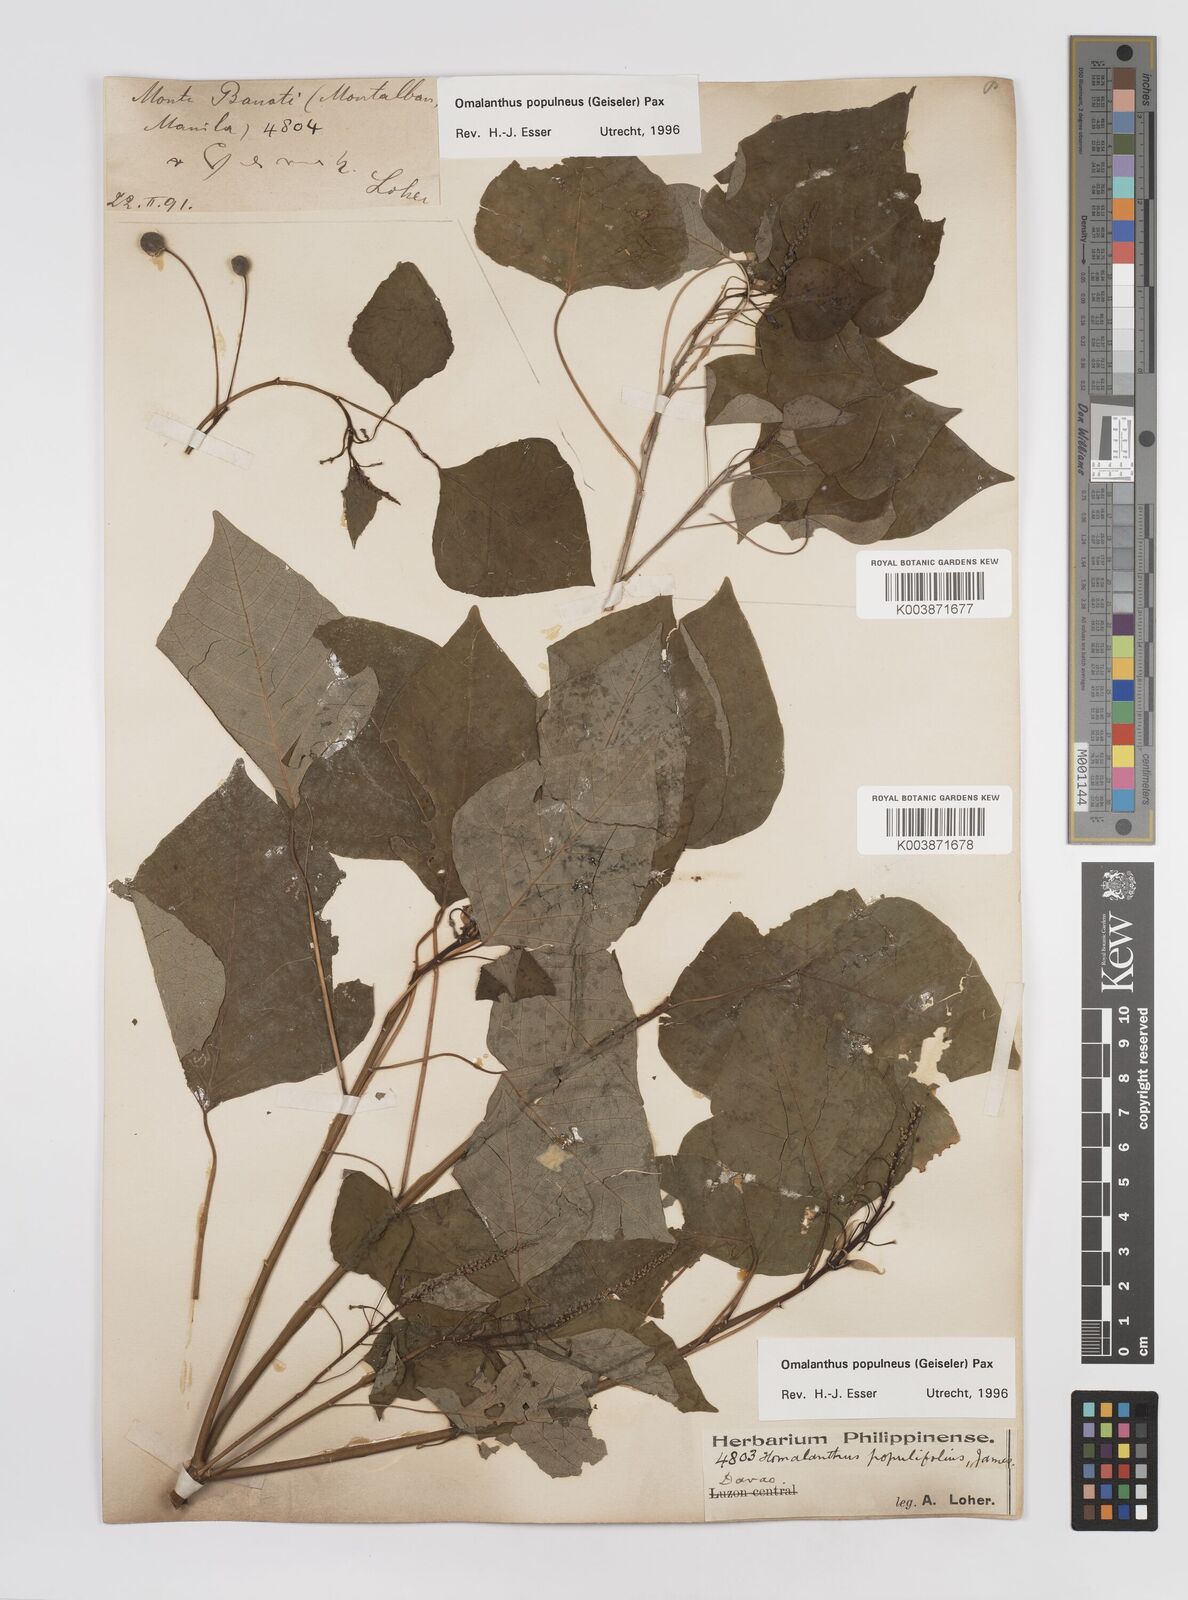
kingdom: Plantae
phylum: Tracheophyta
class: Magnoliopsida
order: Malpighiales
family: Euphorbiaceae
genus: Homalanthus
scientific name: Homalanthus populneus
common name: Spurge
